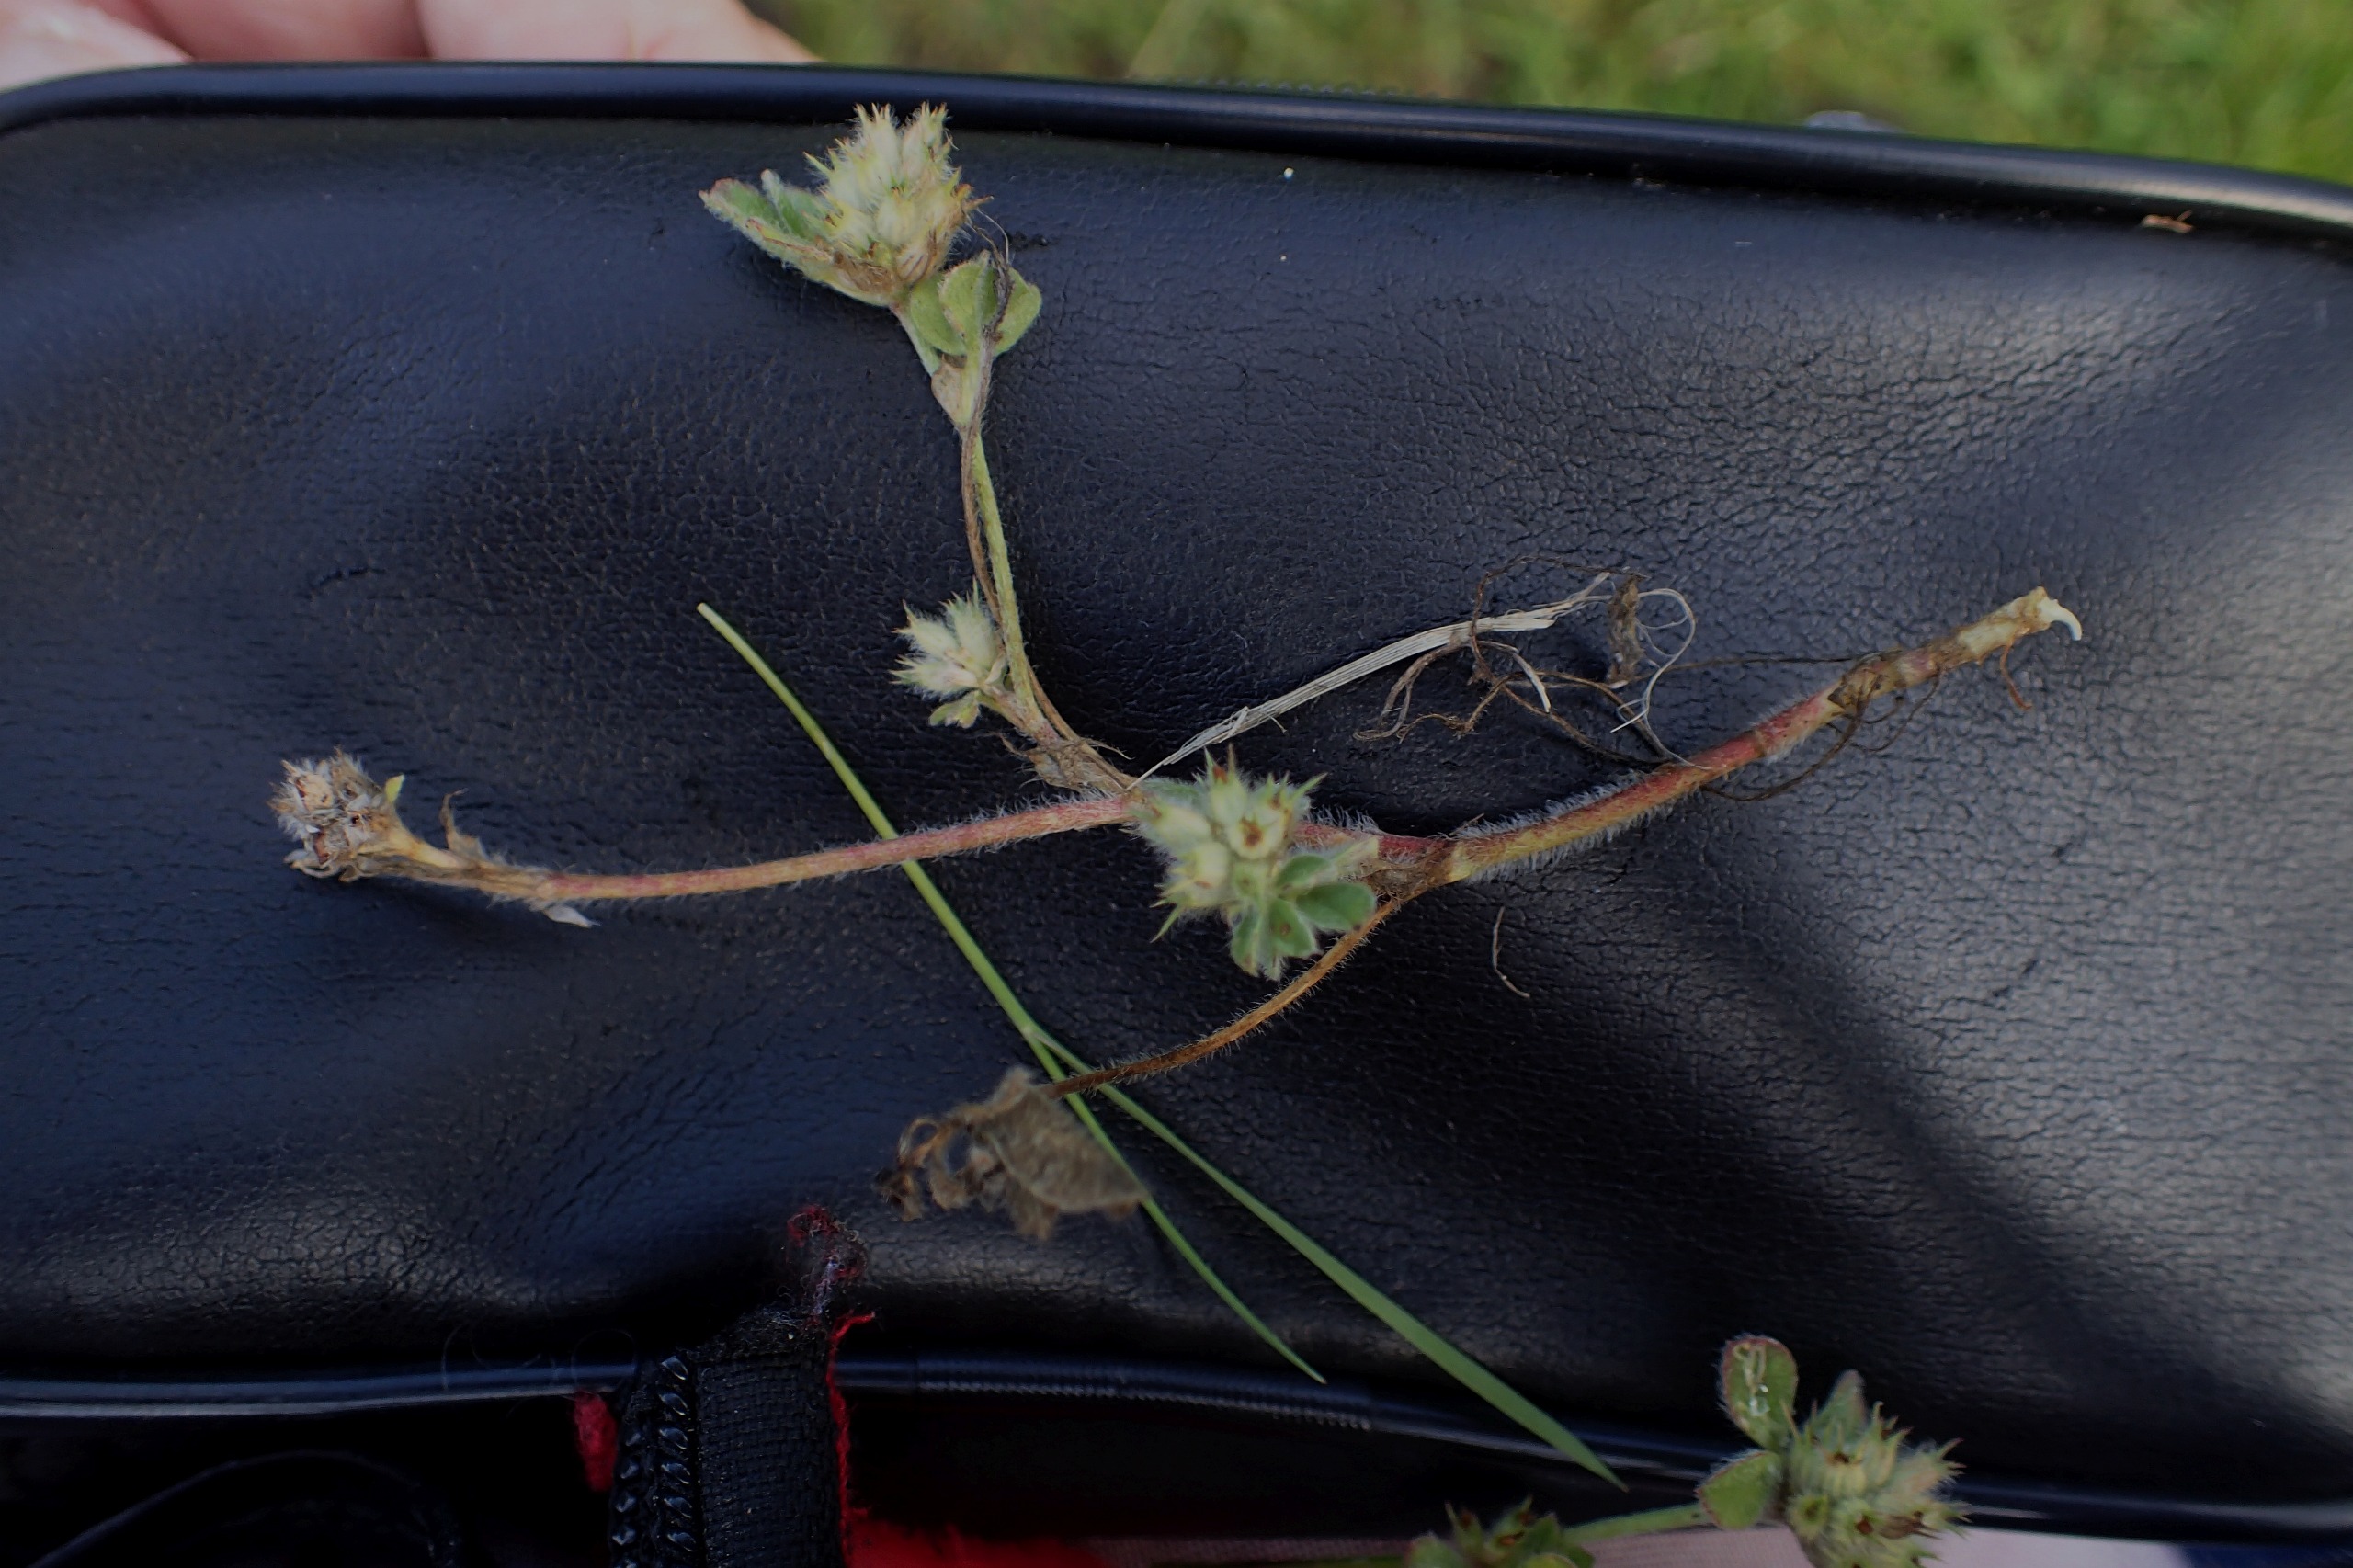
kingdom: Plantae
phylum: Tracheophyta
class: Magnoliopsida
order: Fabales
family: Fabaceae
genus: Trifolium
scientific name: Trifolium striatum
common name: Stribet kløver
